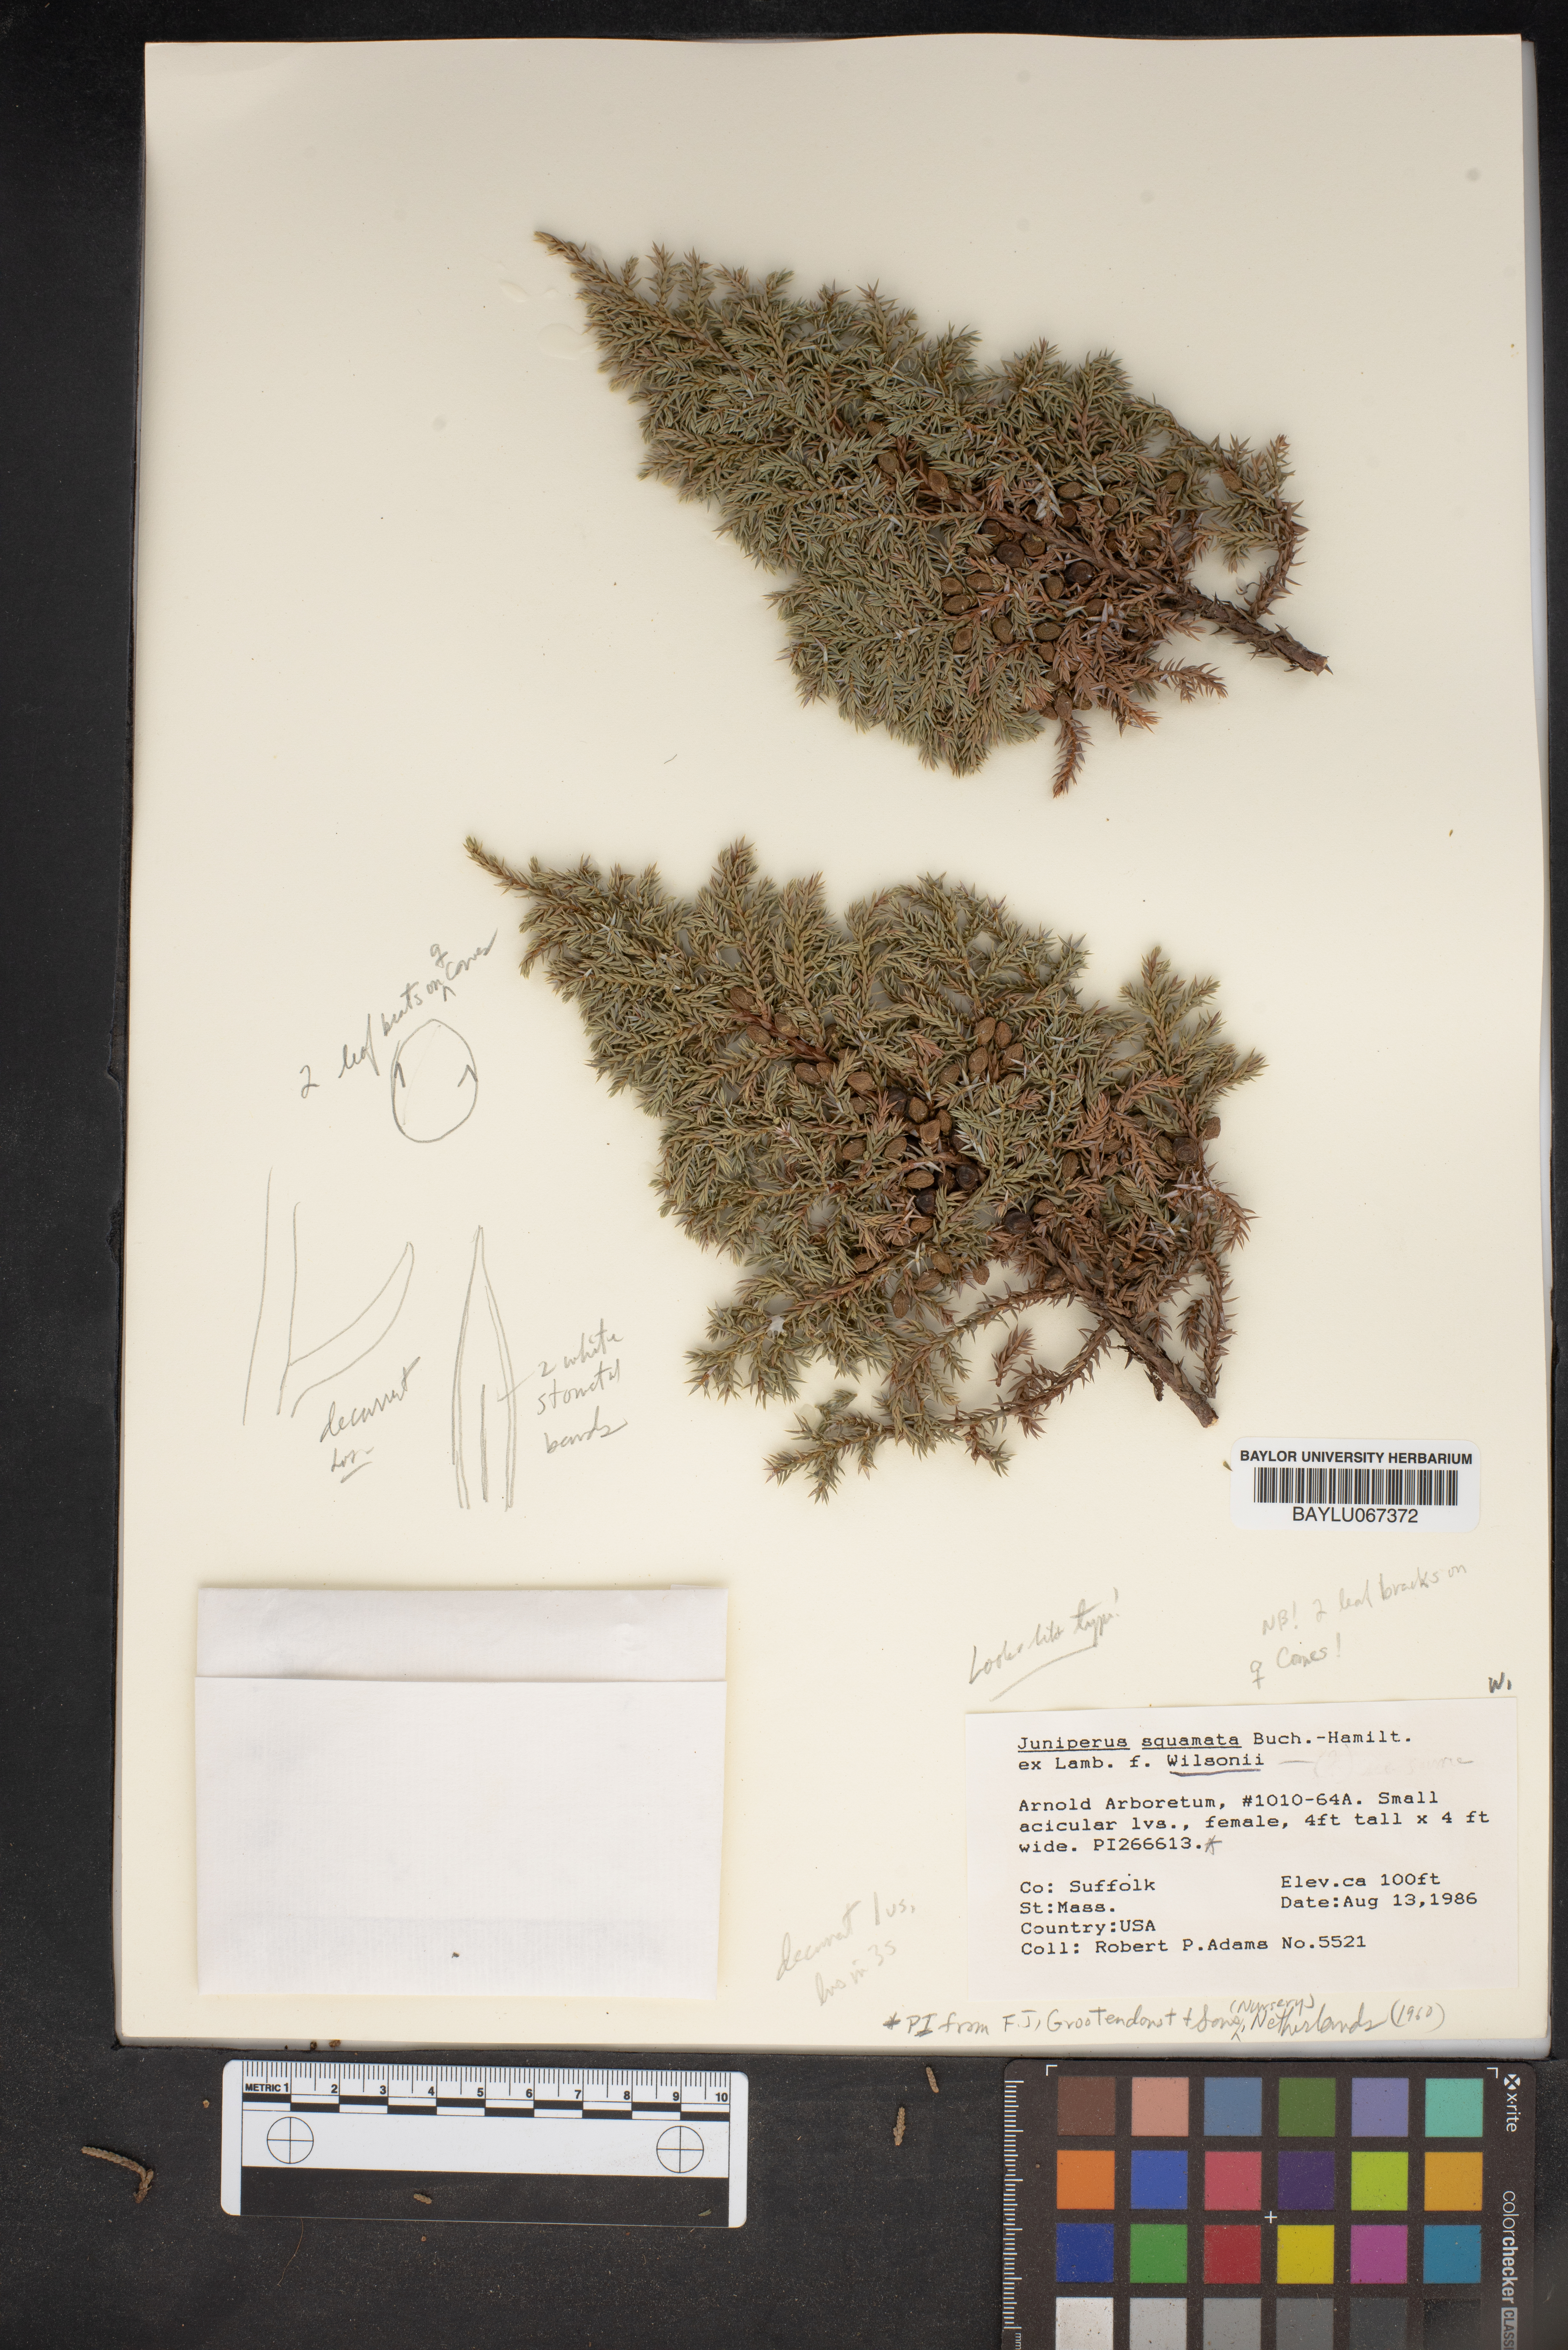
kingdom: Plantae
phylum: Tracheophyta
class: Pinopsida
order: Pinales
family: Cupressaceae
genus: Juniperus
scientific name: Juniperus squamata
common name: Flaky juniper
